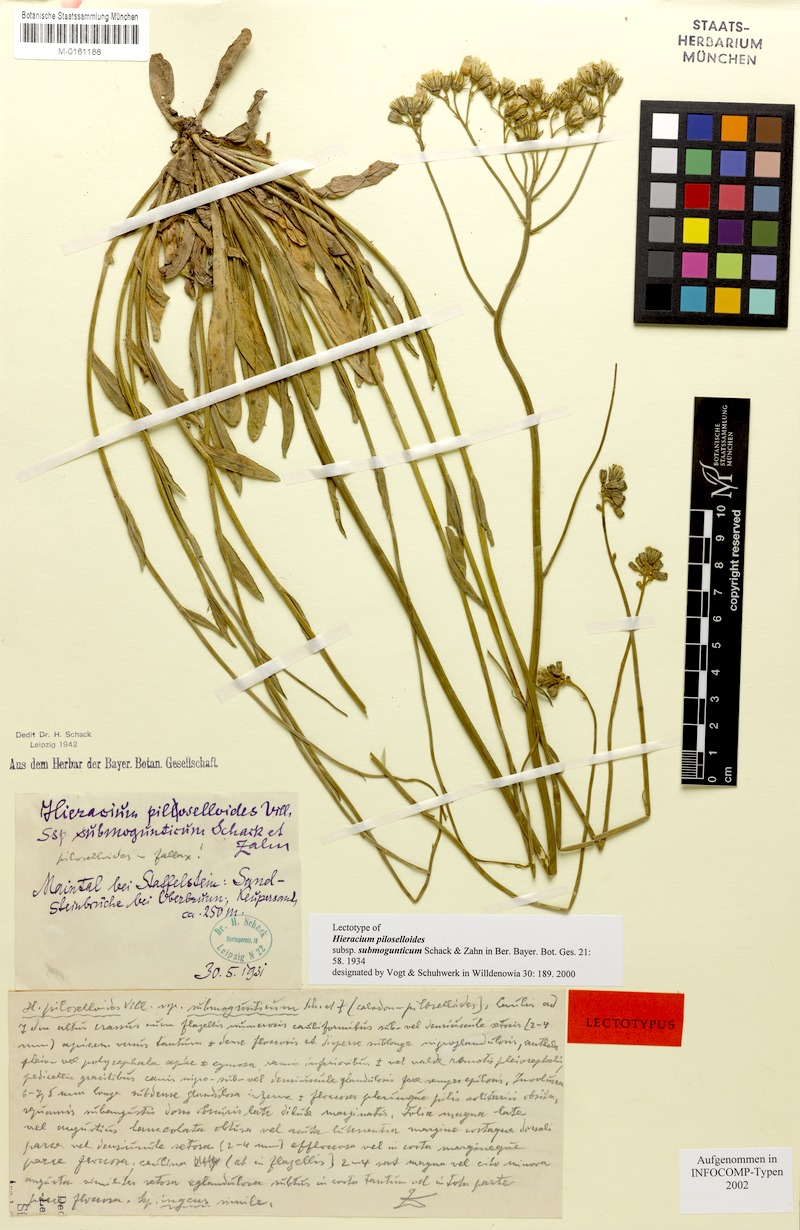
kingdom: Plantae
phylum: Tracheophyta
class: Magnoliopsida
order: Asterales
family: Asteraceae
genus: Pilosella
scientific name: Pilosella piloselloides
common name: Glaucous king-devil
